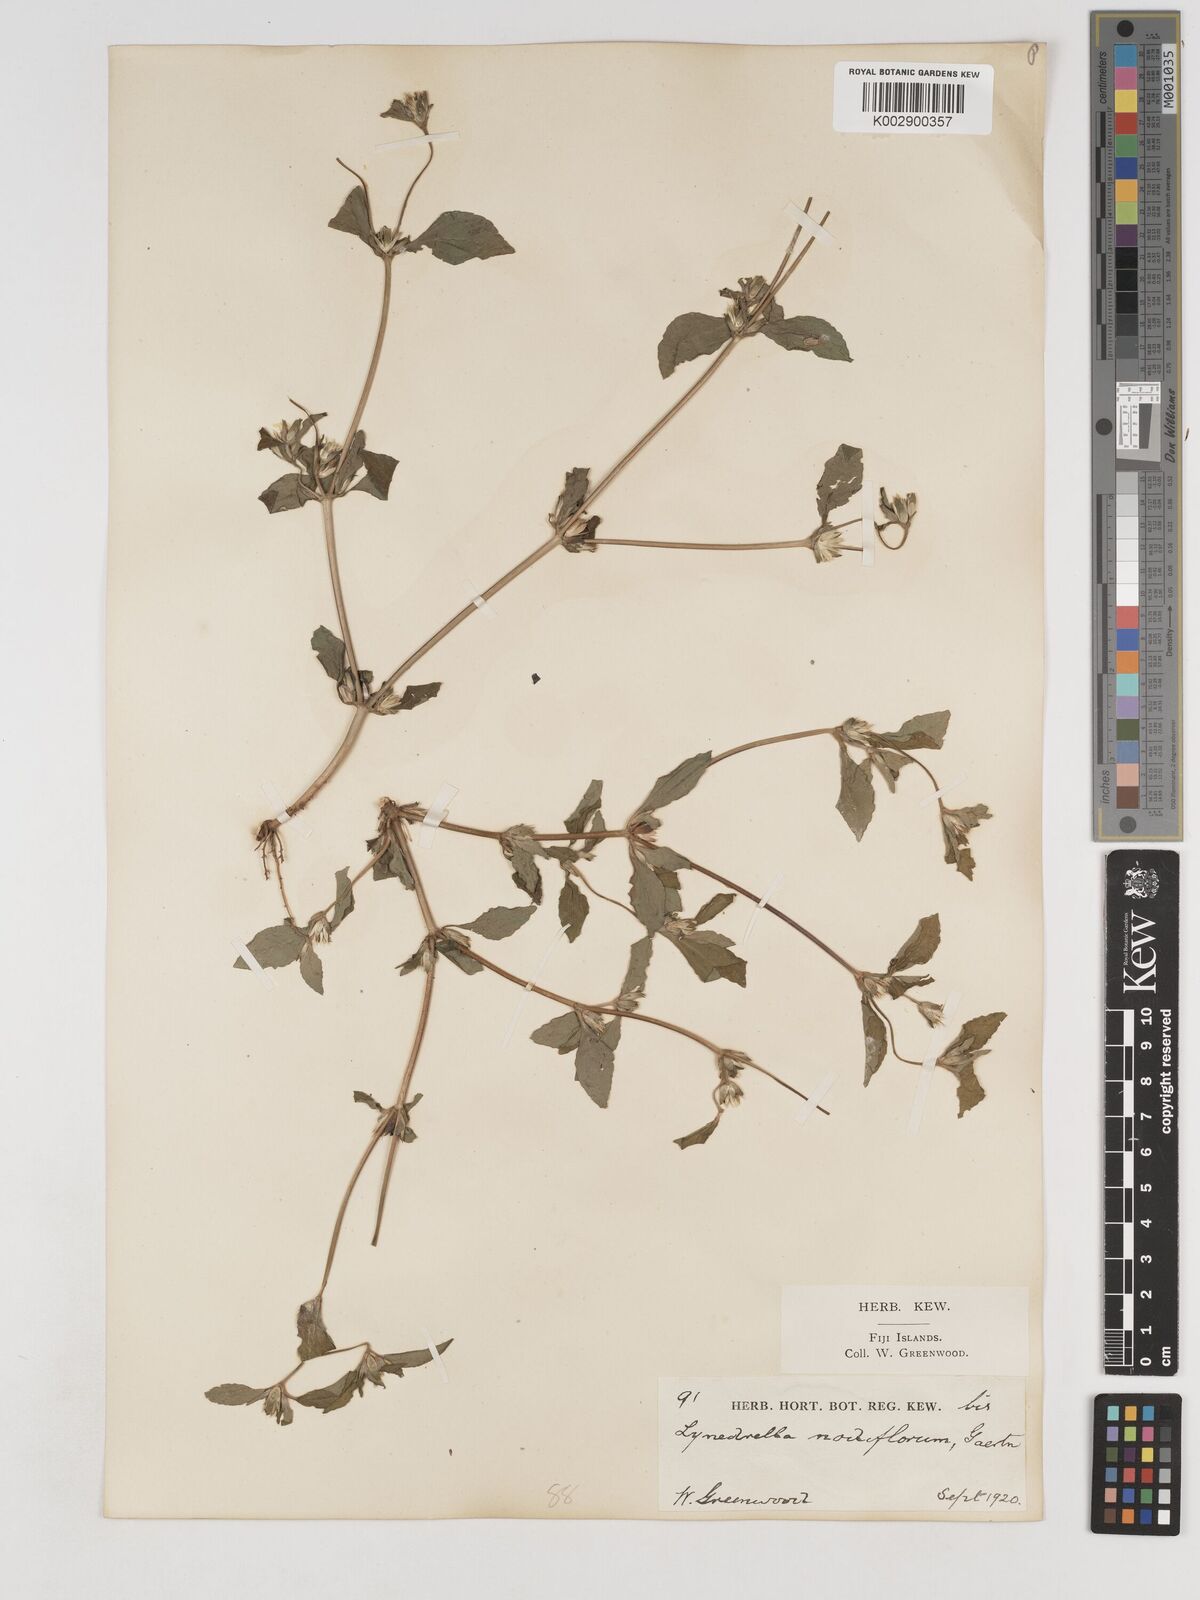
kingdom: Plantae
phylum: Tracheophyta
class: Magnoliopsida
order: Asterales
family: Asteraceae
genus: Synedrella
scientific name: Synedrella nodiflora
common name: Nodeweed
